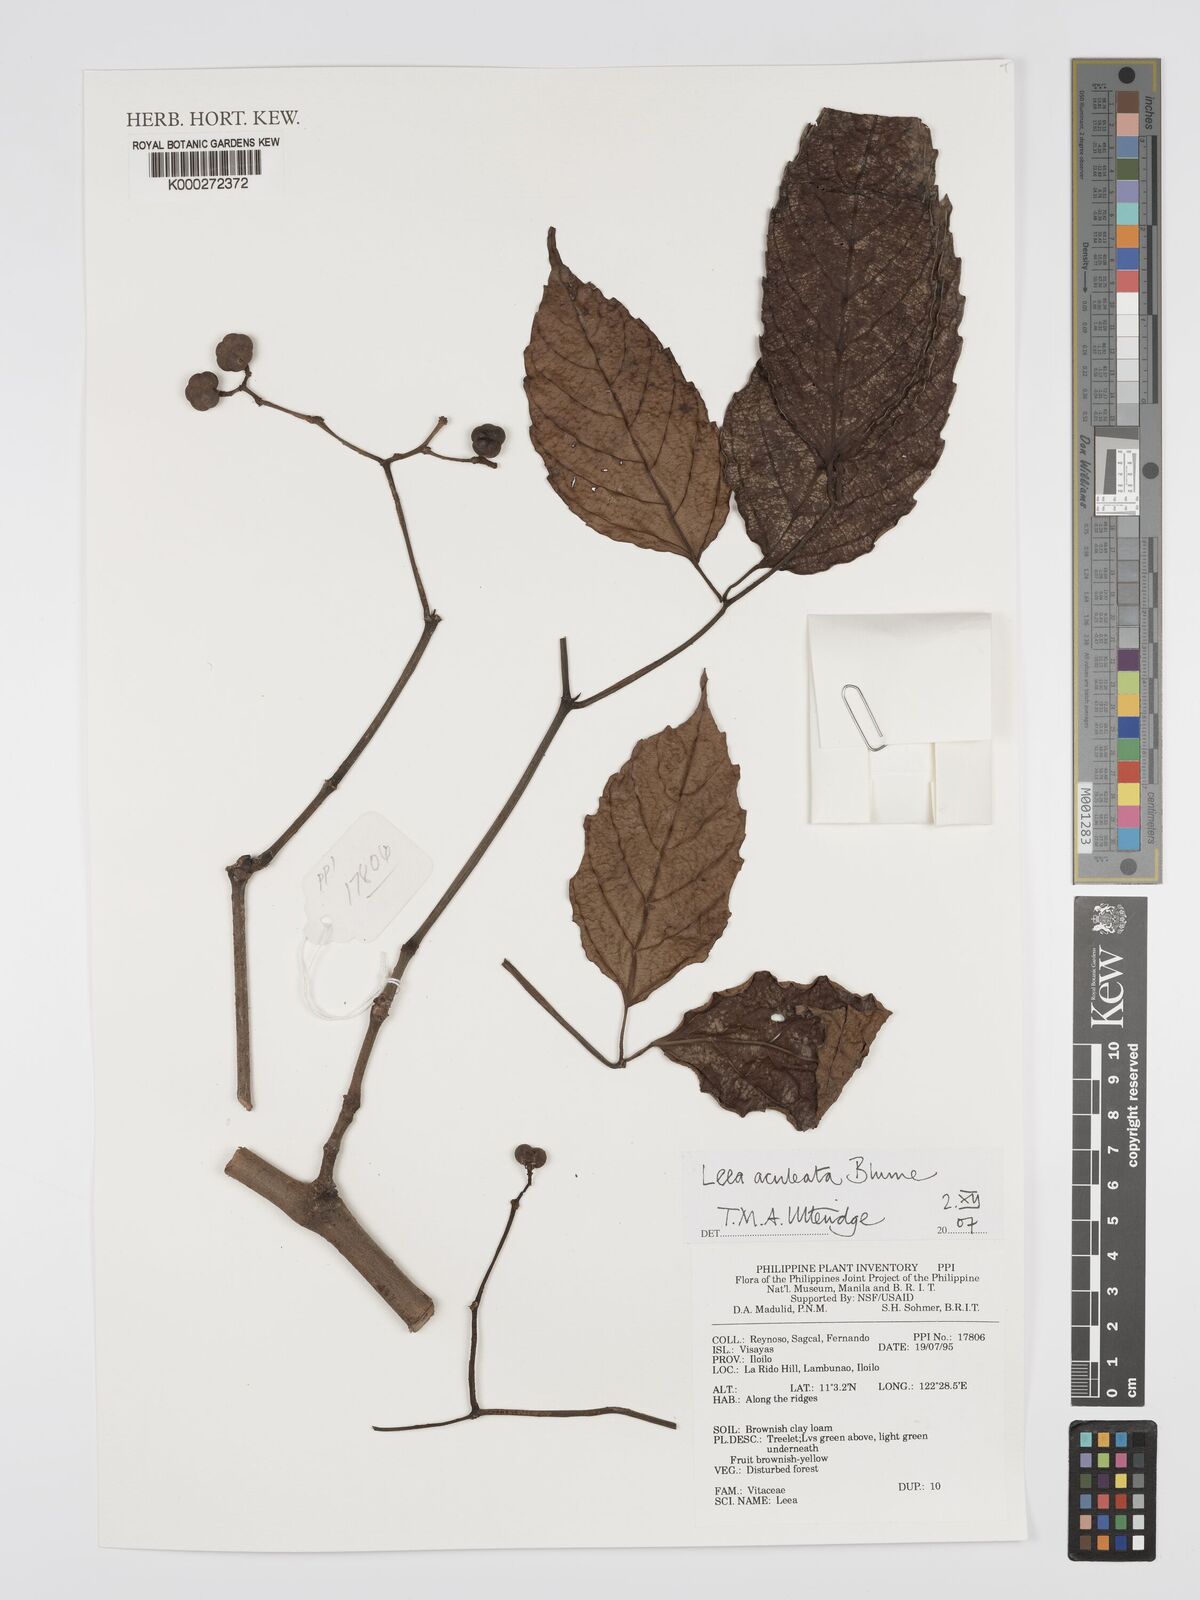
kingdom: Plantae
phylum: Tracheophyta
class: Magnoliopsida
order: Vitales
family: Vitaceae
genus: Leea
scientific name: Leea aculeata
